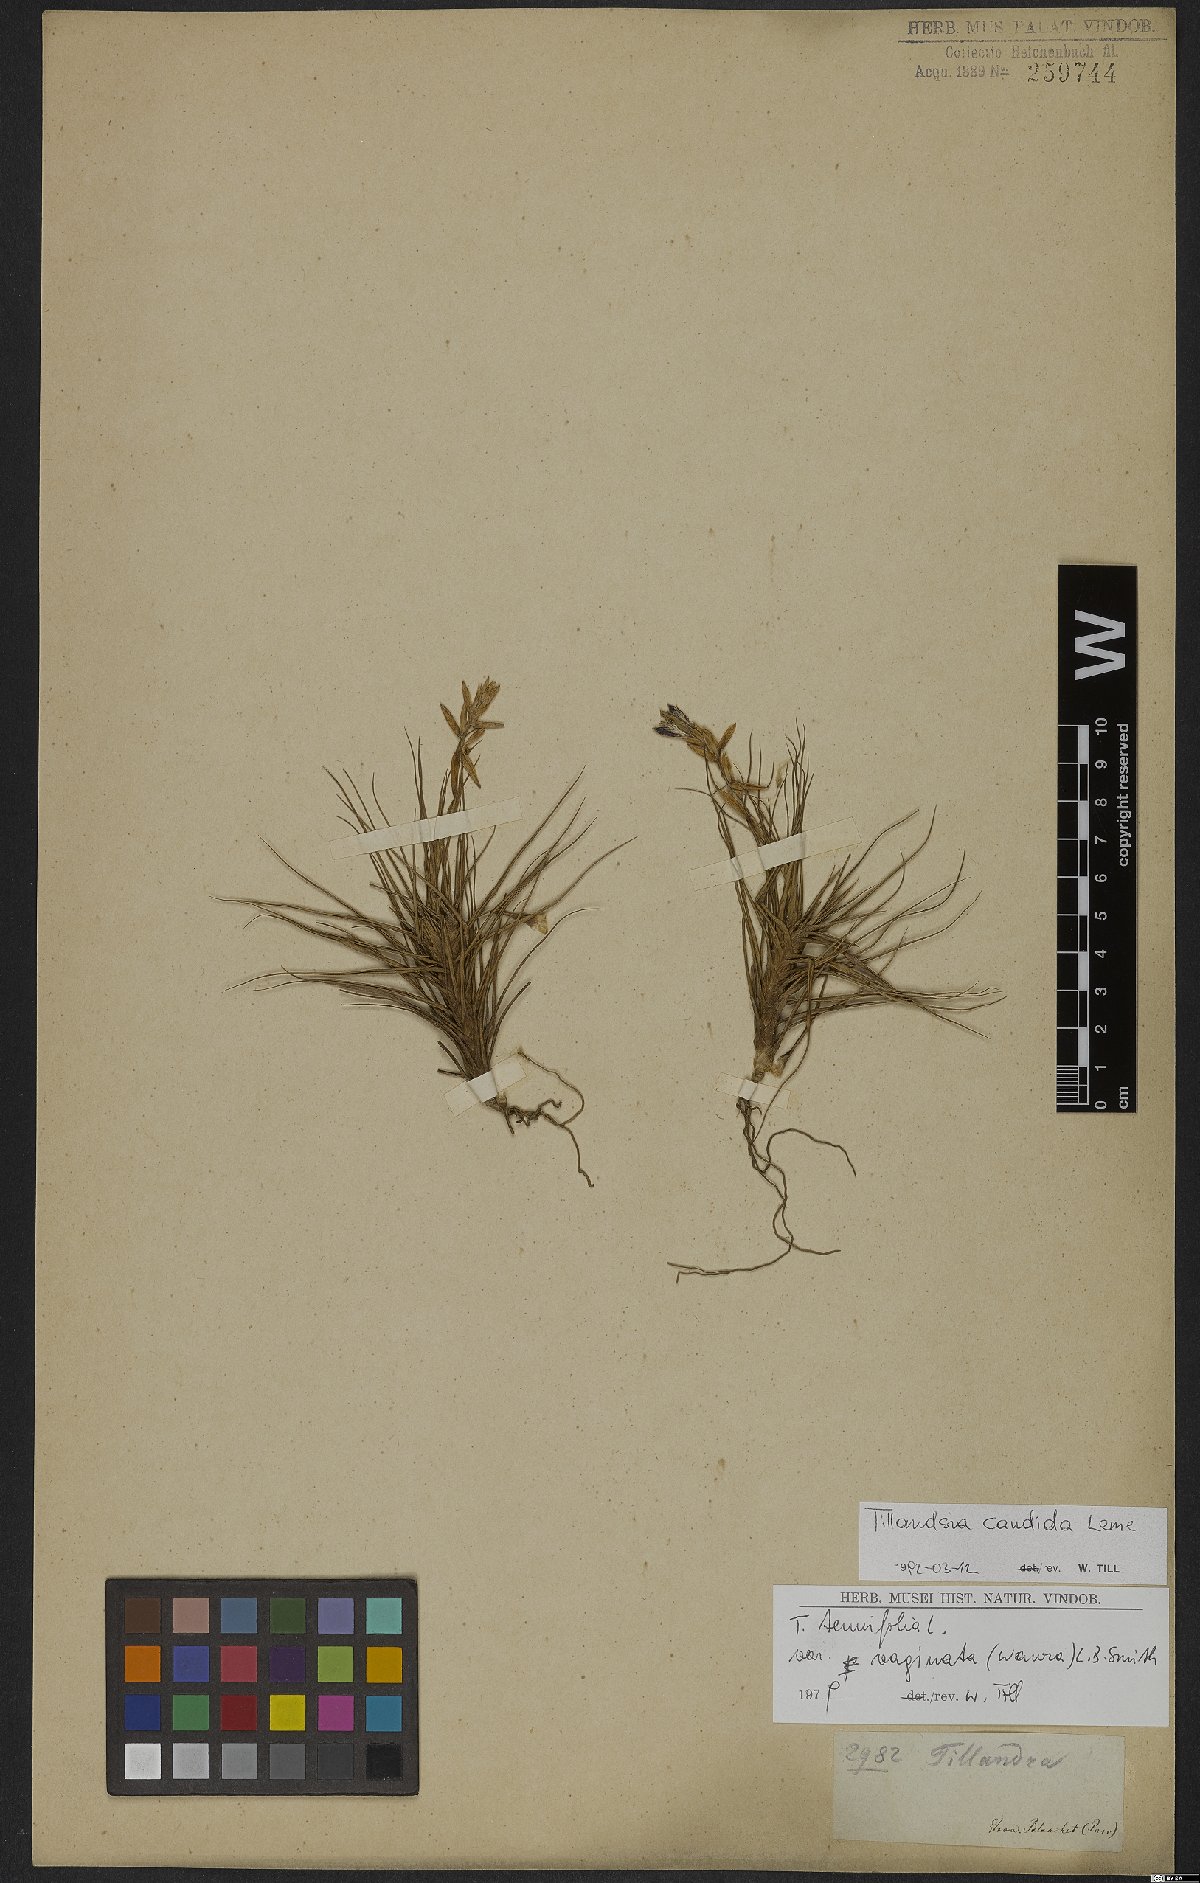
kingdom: Plantae
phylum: Tracheophyta
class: Liliopsida
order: Poales
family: Bromeliaceae
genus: Tillandsia
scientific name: Tillandsia candida
